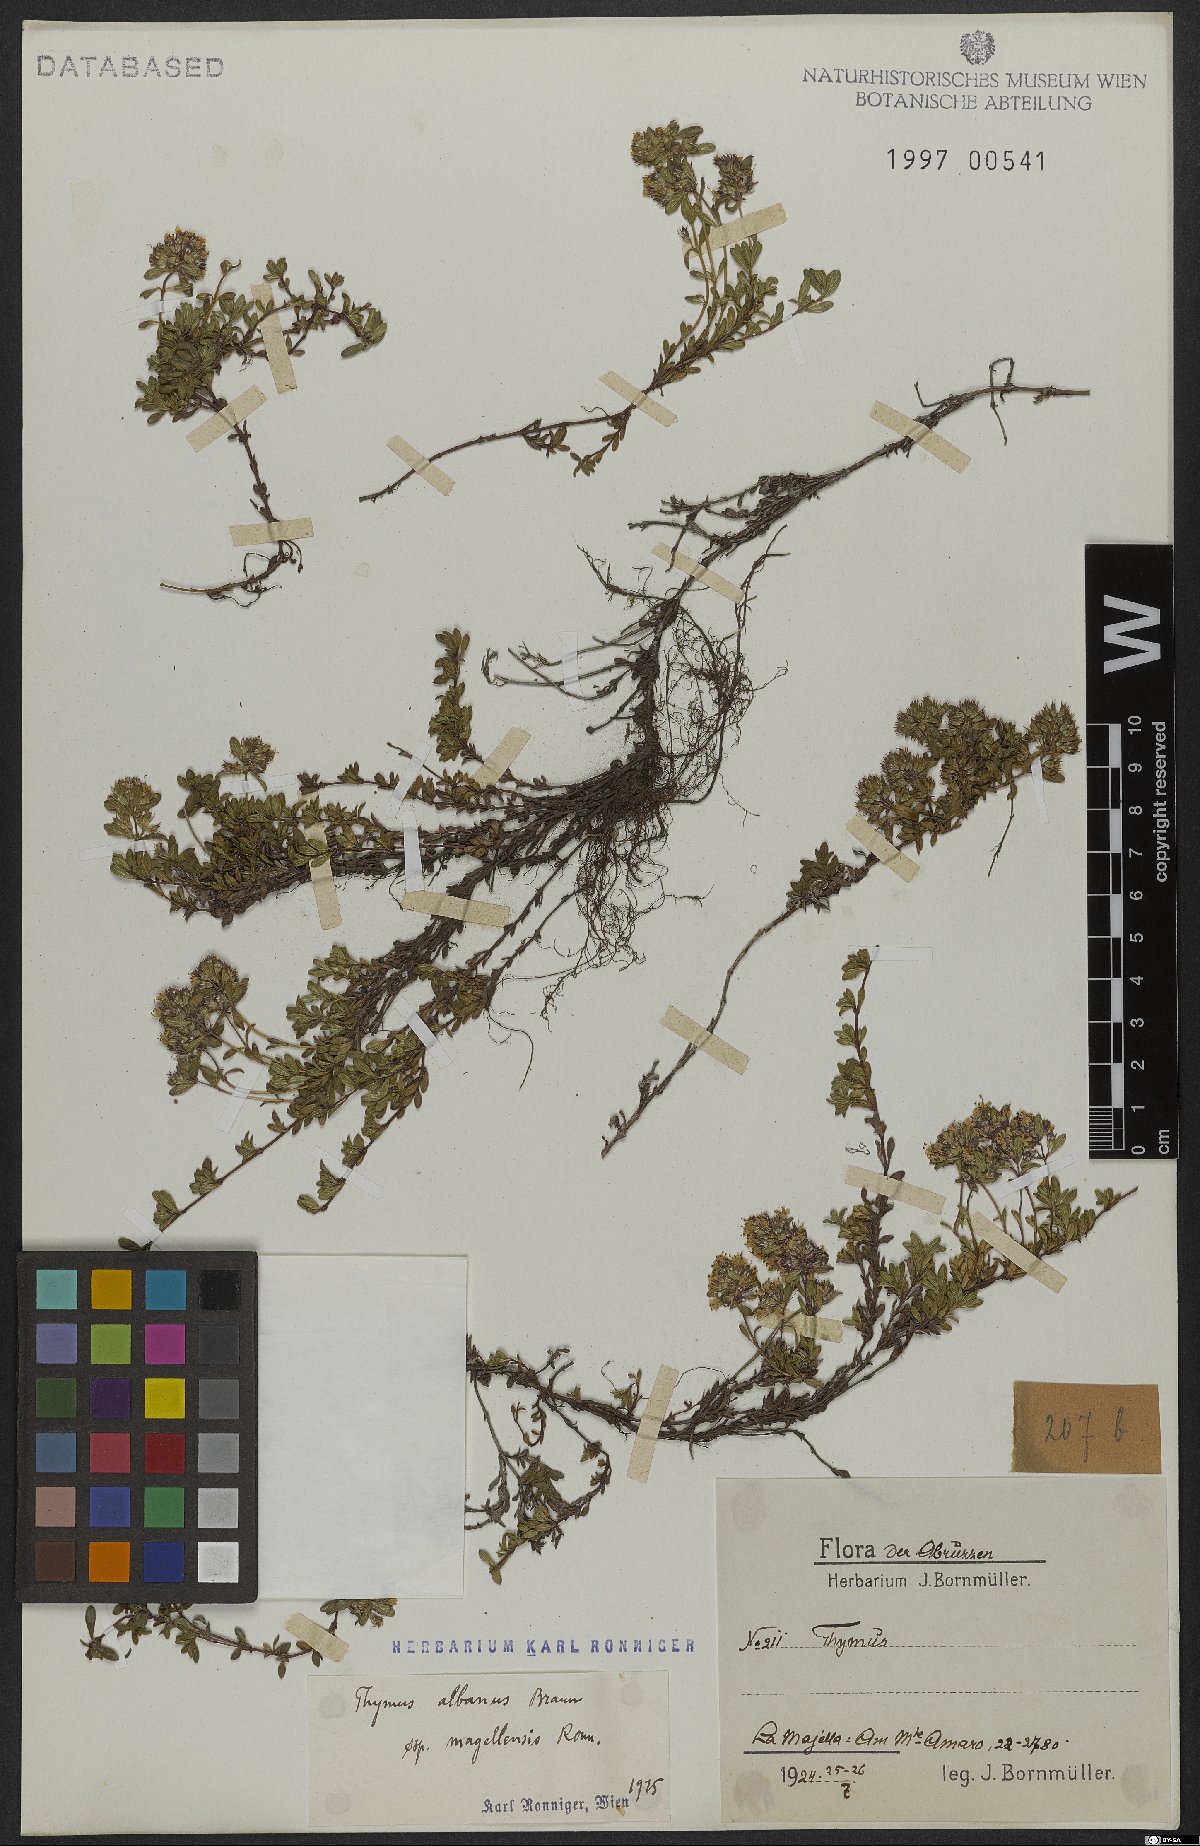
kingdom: Plantae
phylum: Tracheophyta
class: Magnoliopsida
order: Lamiales
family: Lamiaceae
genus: Thymus
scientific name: Thymus zygiformis
